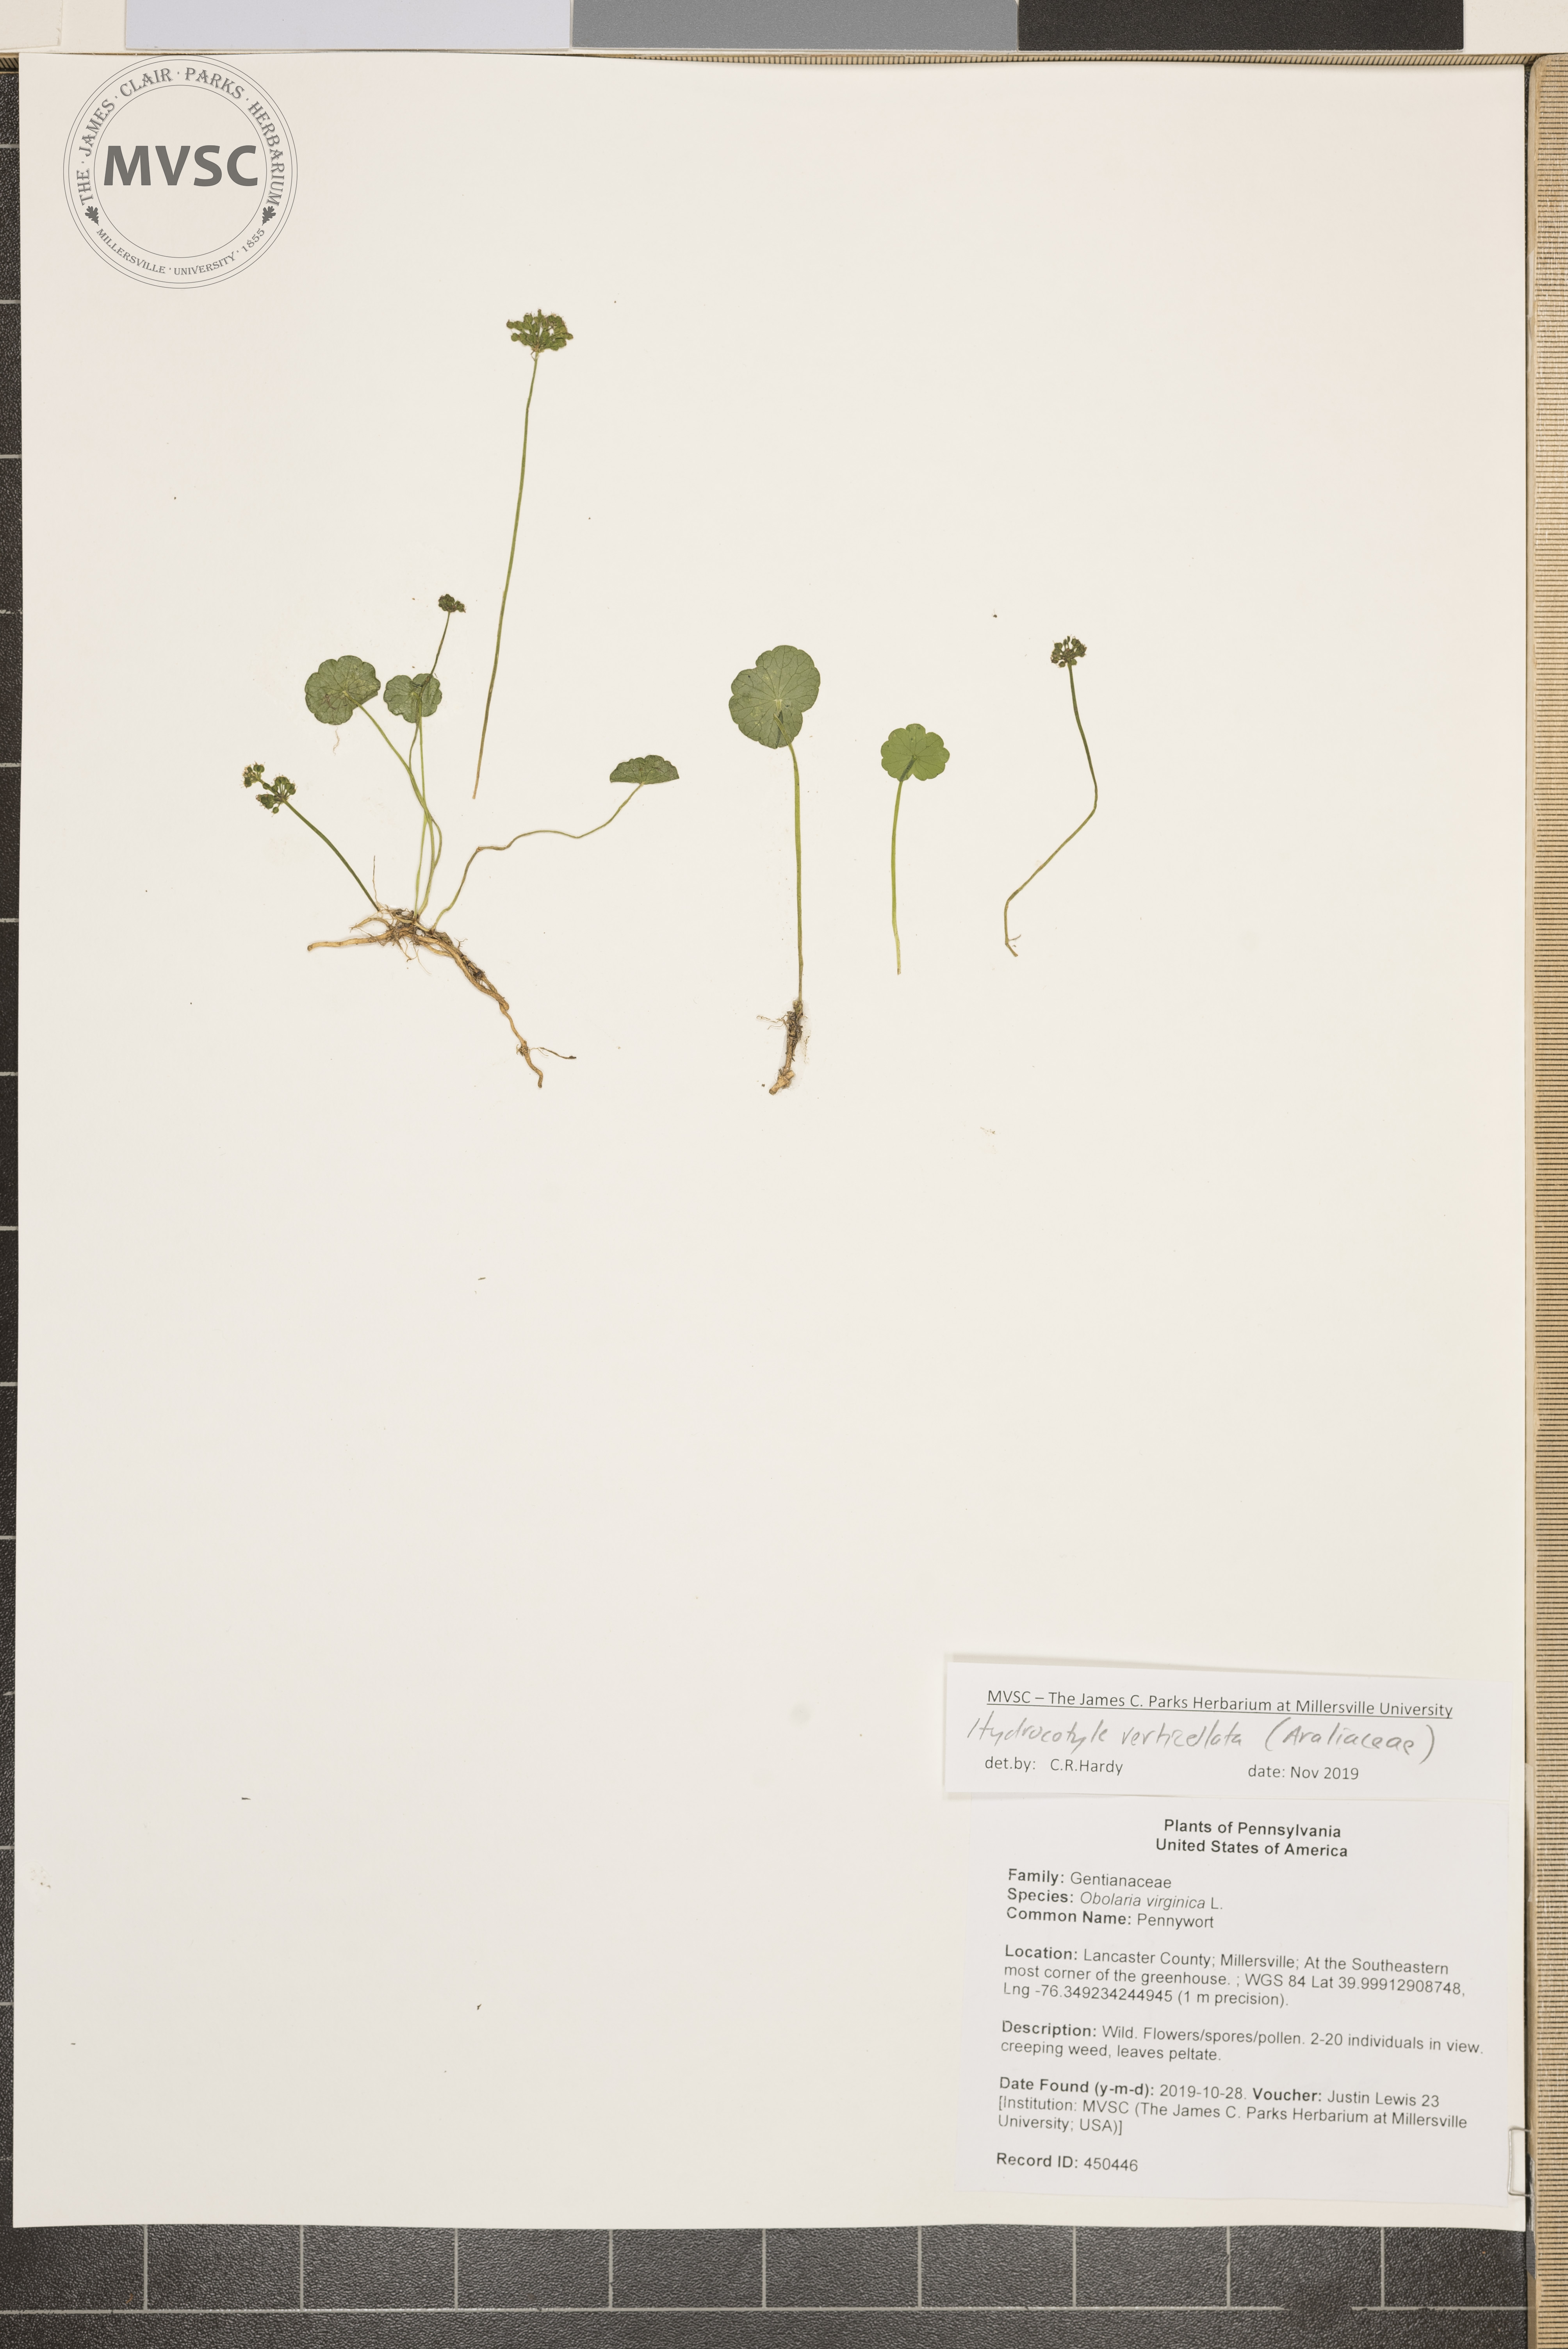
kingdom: Plantae
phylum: Tracheophyta
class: Magnoliopsida
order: Apiales
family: Araliaceae
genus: Hydrocotyle
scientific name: Hydrocotyle verticillata
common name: Whorled marshpennywort
